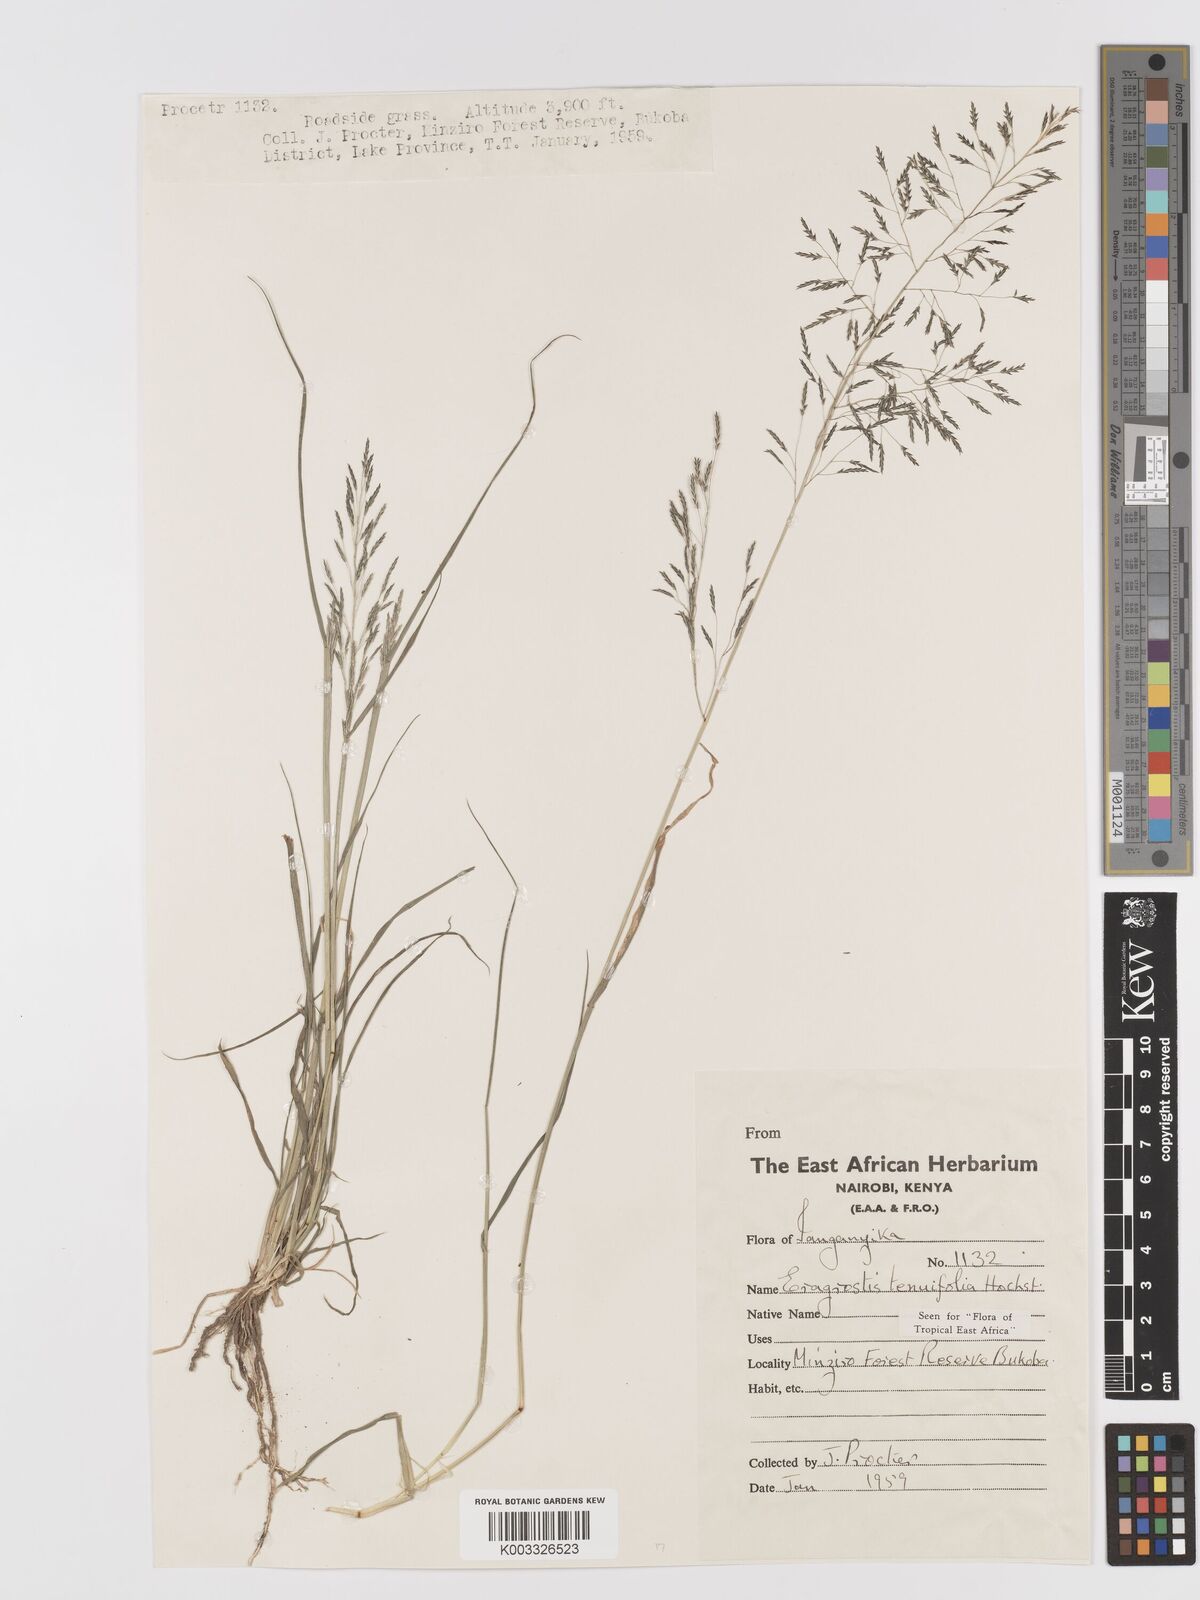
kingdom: Plantae
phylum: Tracheophyta
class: Liliopsida
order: Poales
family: Poaceae
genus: Eragrostis
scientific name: Eragrostis tenuifolia
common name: Elastic grass
